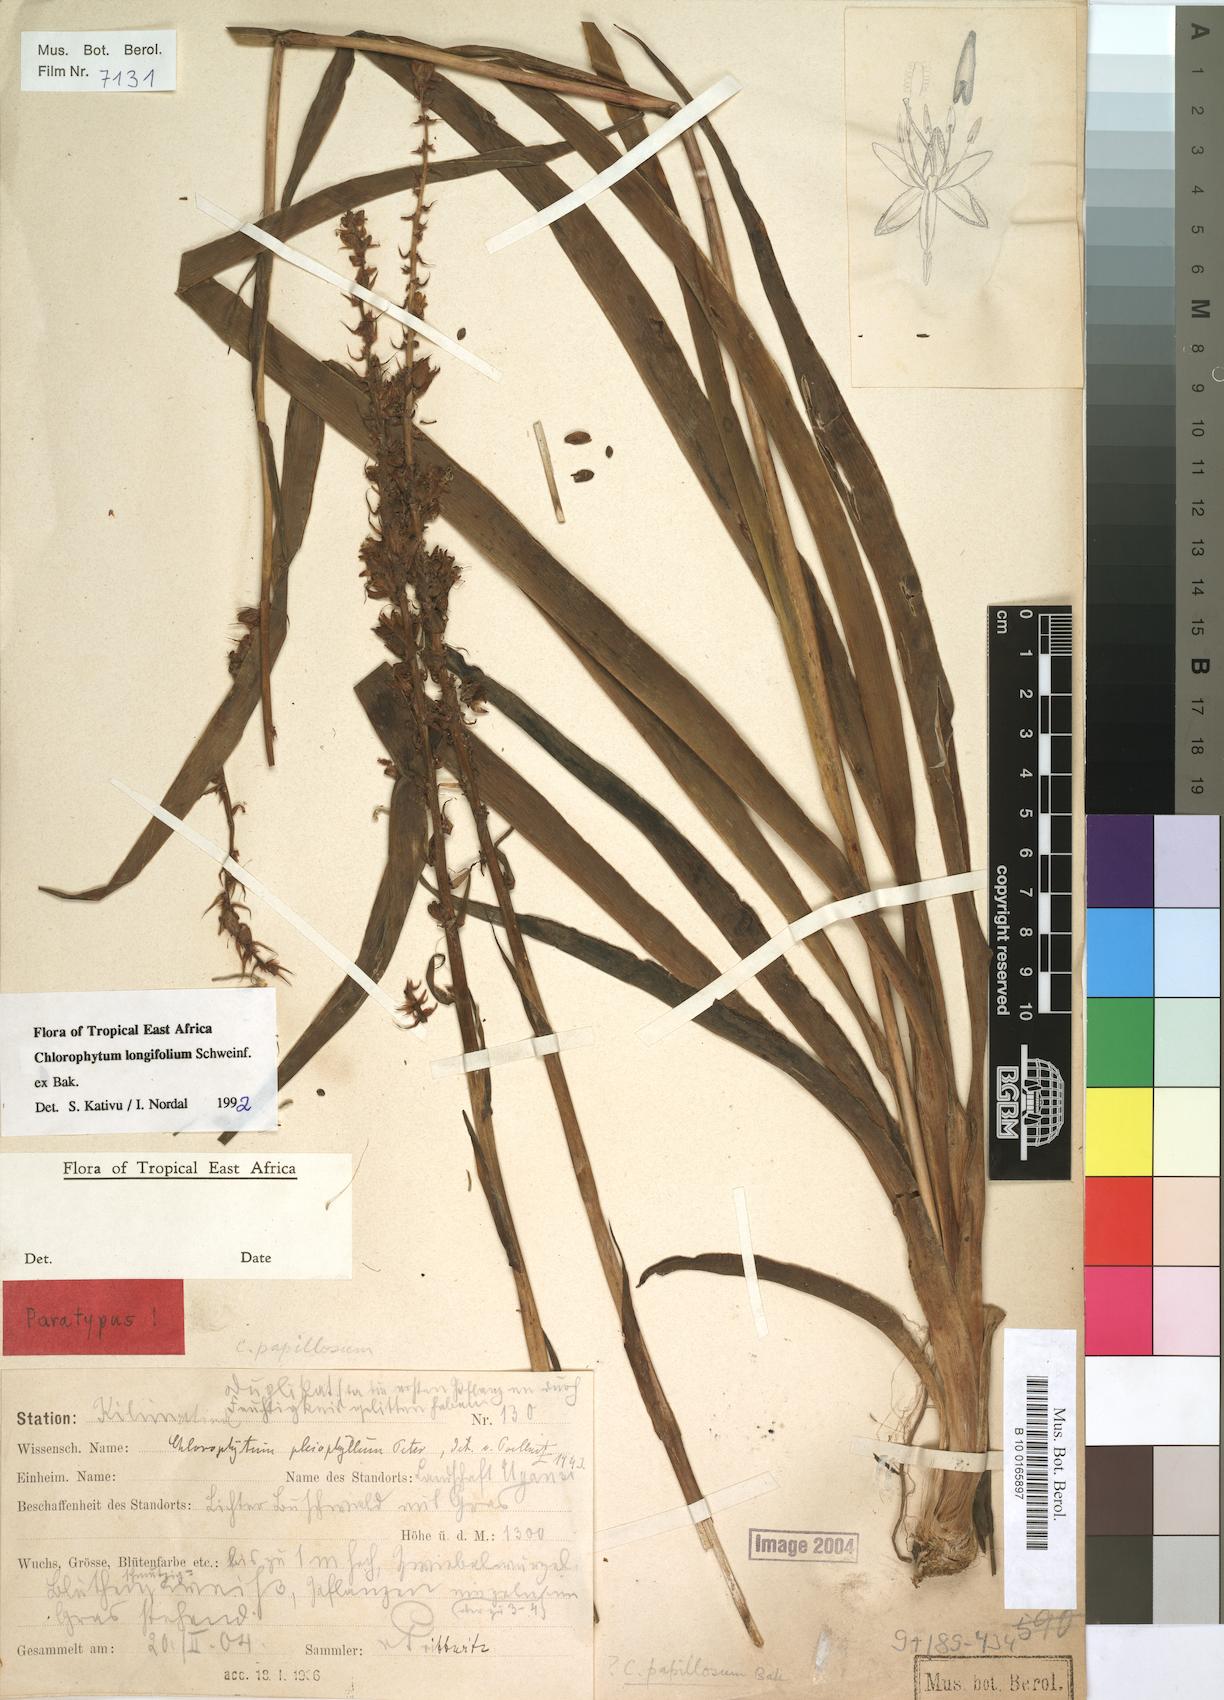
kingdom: Plantae
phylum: Tracheophyta
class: Liliopsida
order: Asparagales
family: Asparagaceae
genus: Chlorophytum
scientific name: Chlorophytum longifolium
